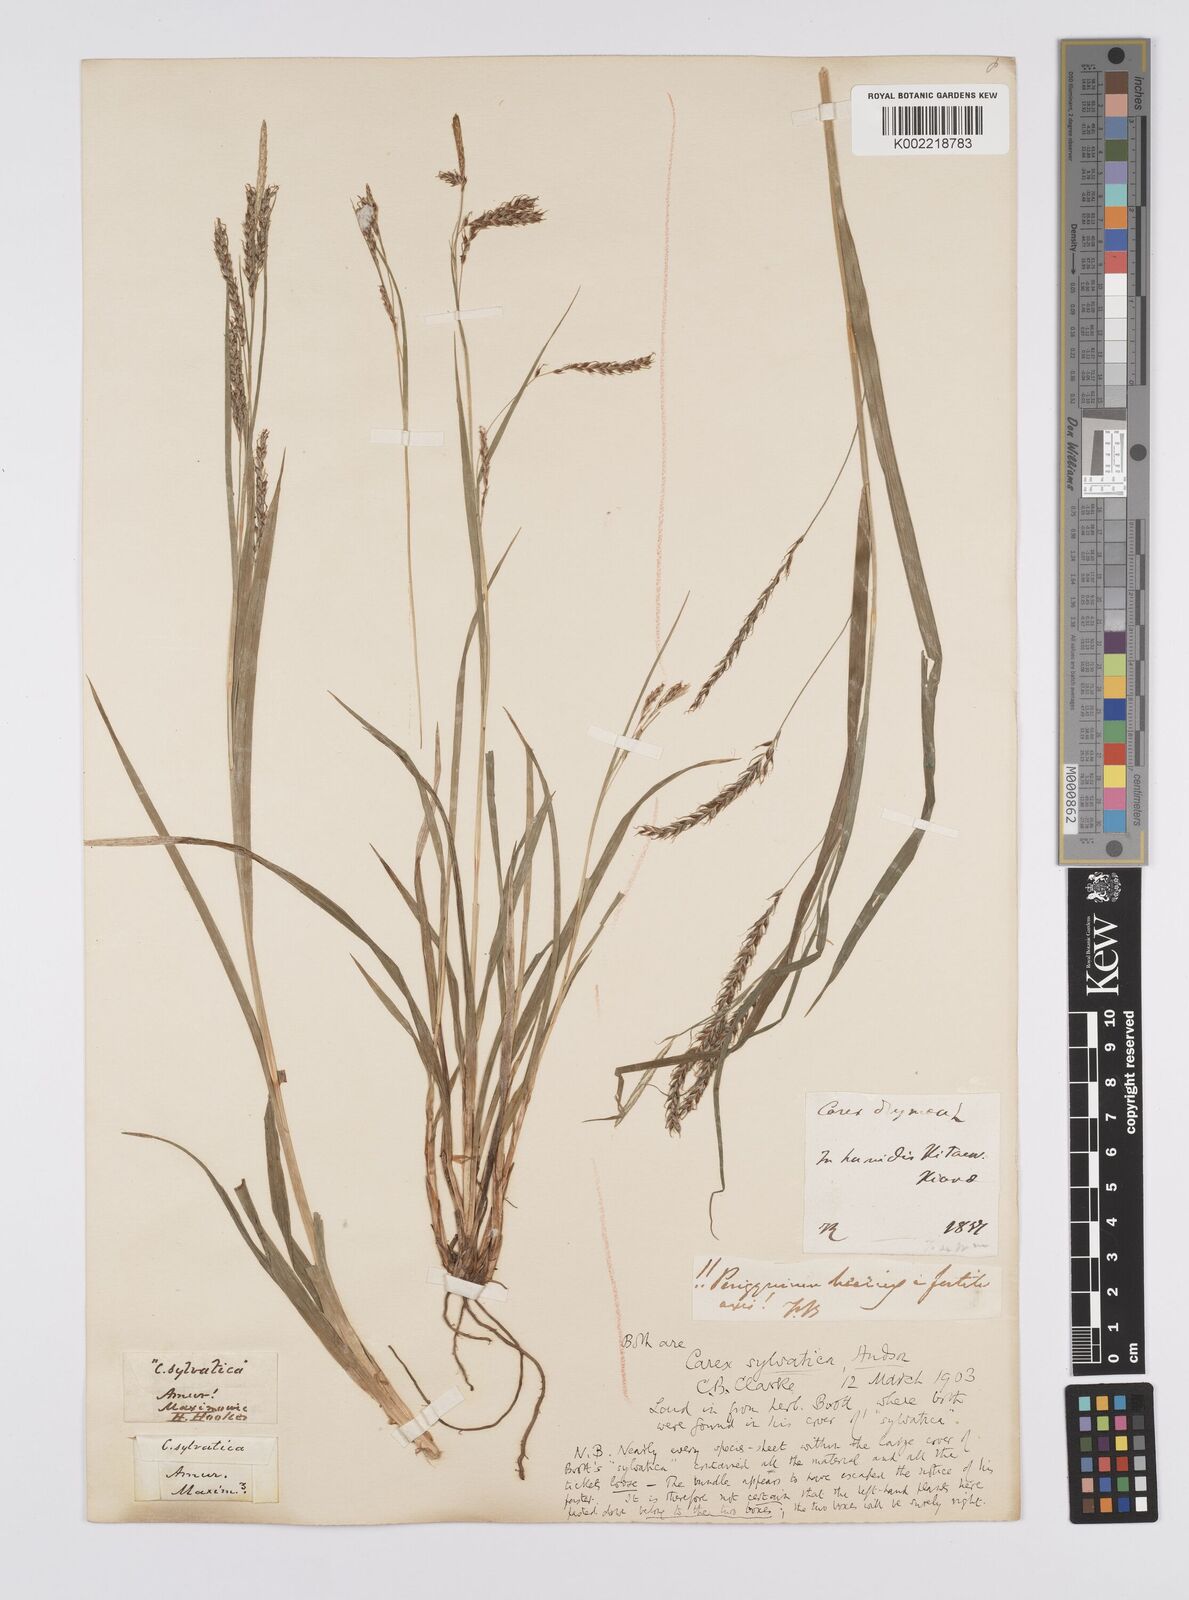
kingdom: Plantae
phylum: Tracheophyta
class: Liliopsida
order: Poales
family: Cyperaceae
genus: Carex
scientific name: Carex arnellii
